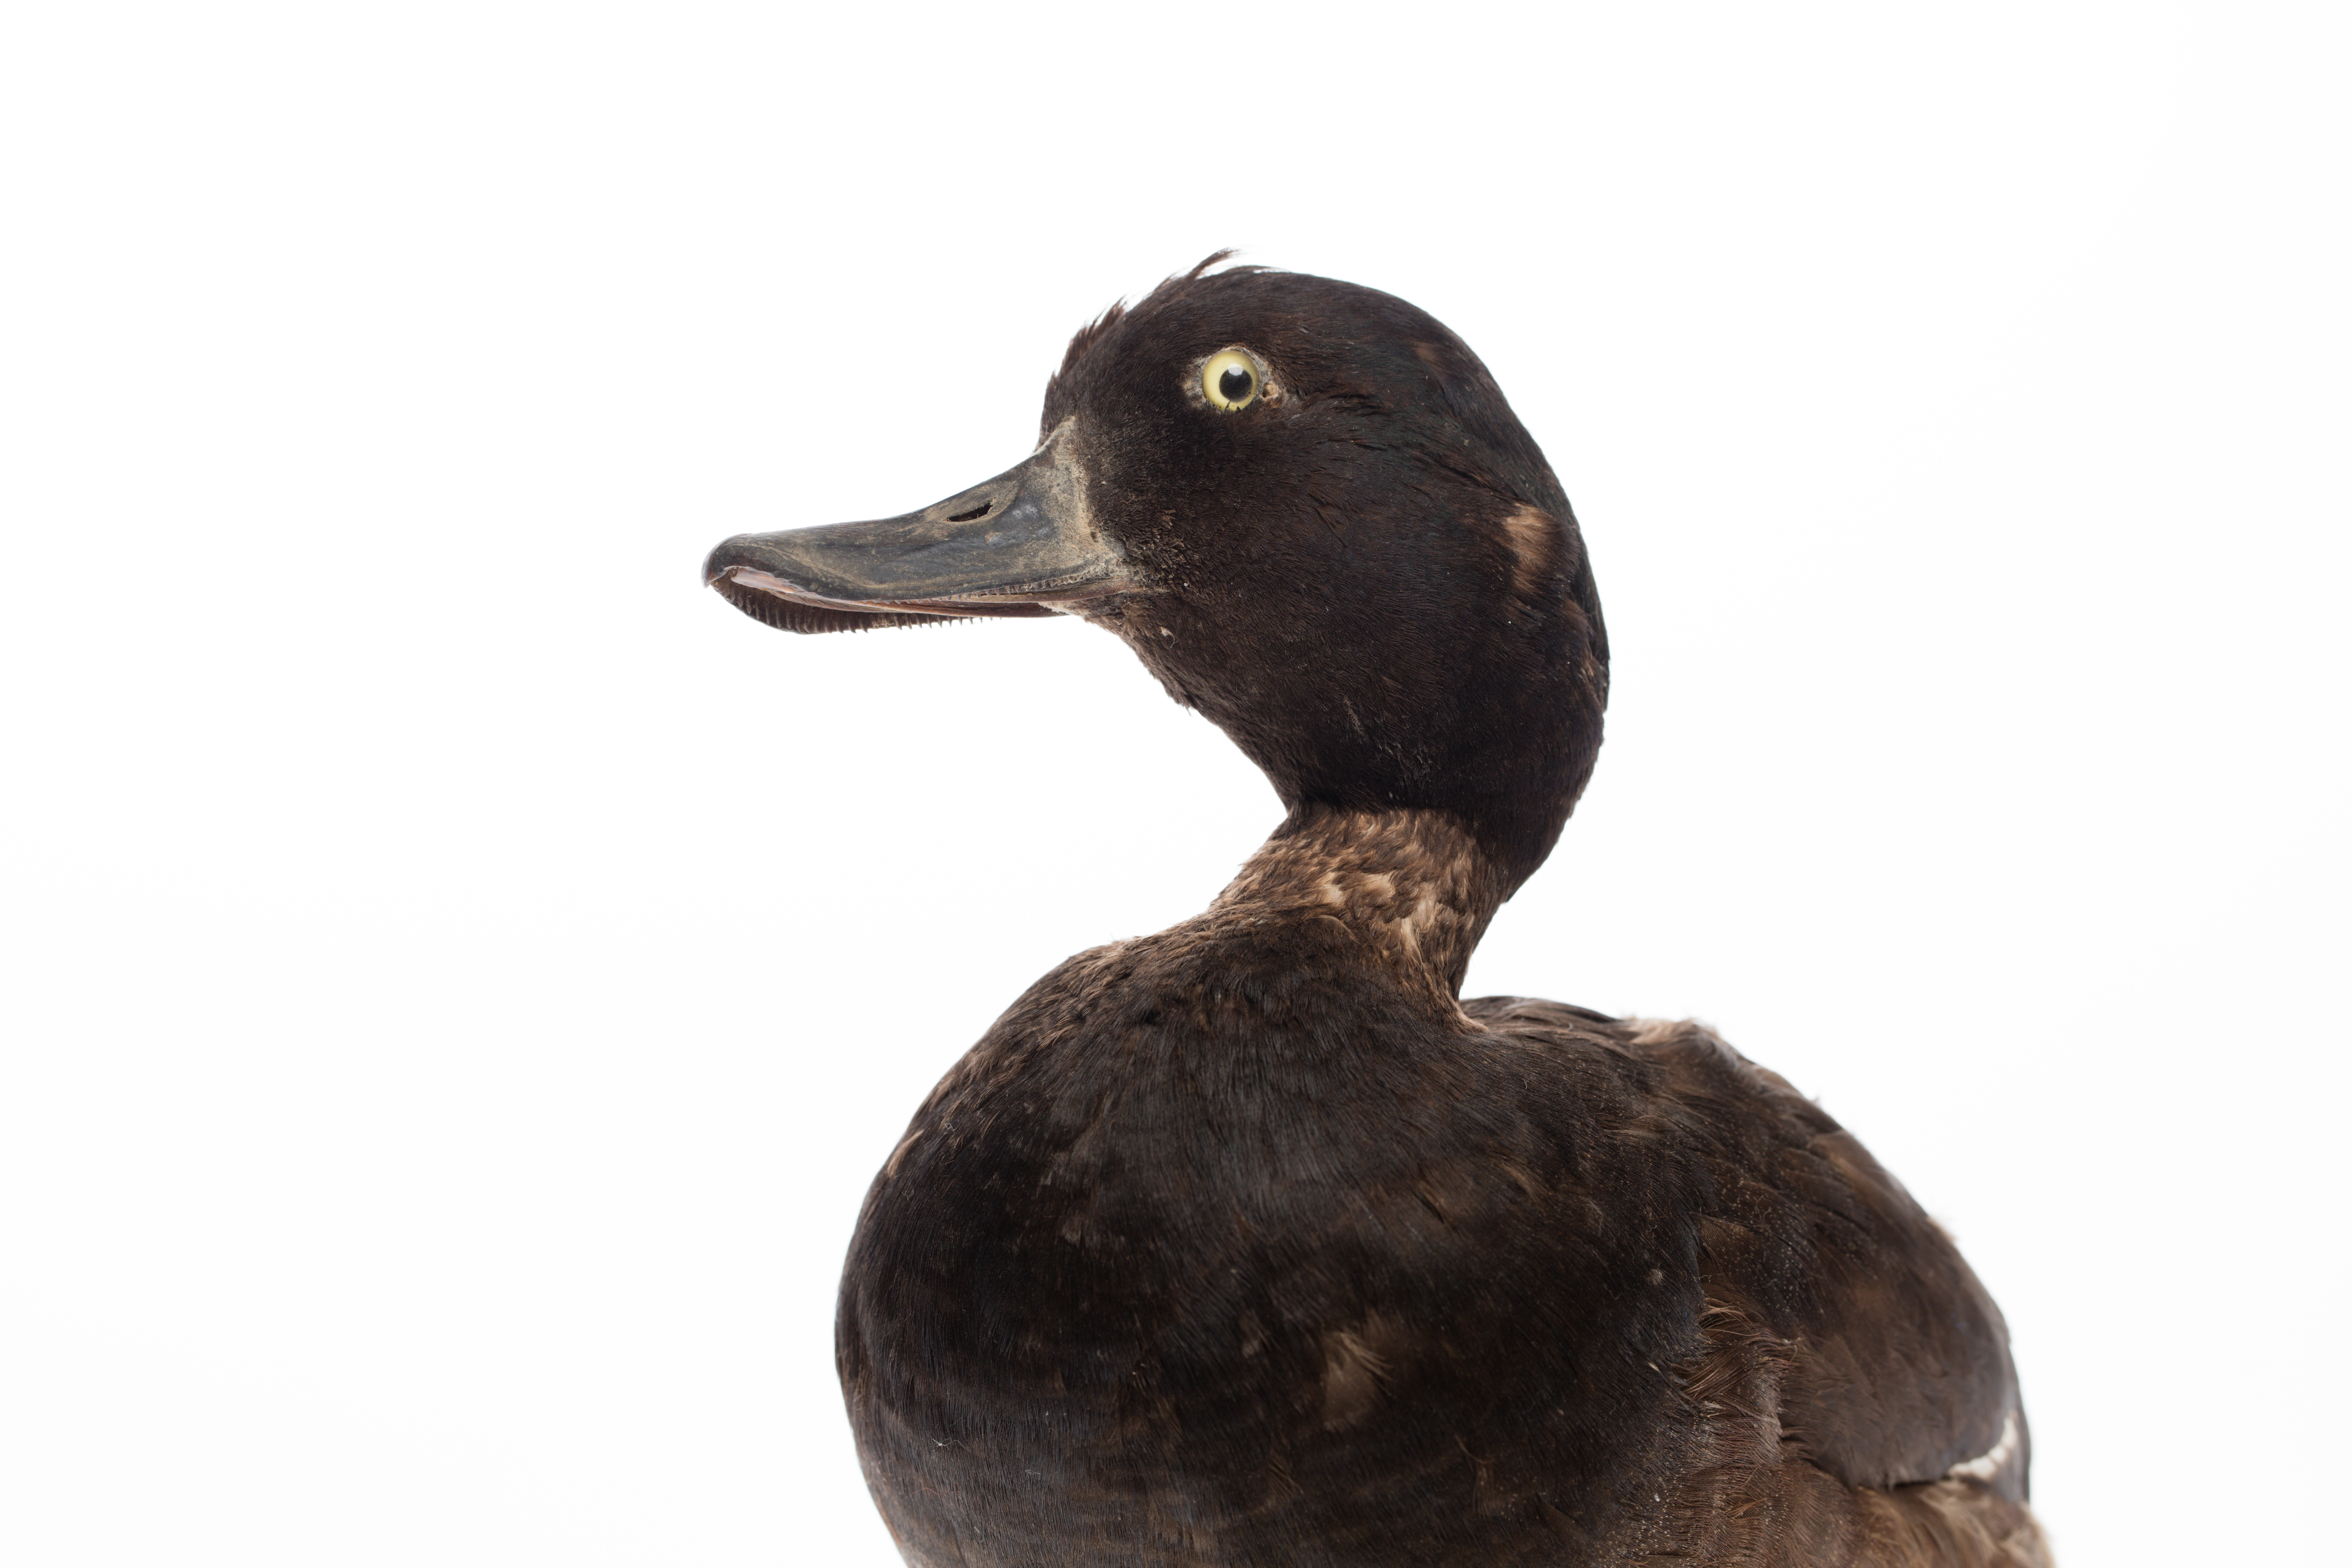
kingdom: Animalia
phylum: Chordata
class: Aves
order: Anseriformes
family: Anatidae
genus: Aythya
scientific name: Aythya novaeseelandiae
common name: New zealand scaup
